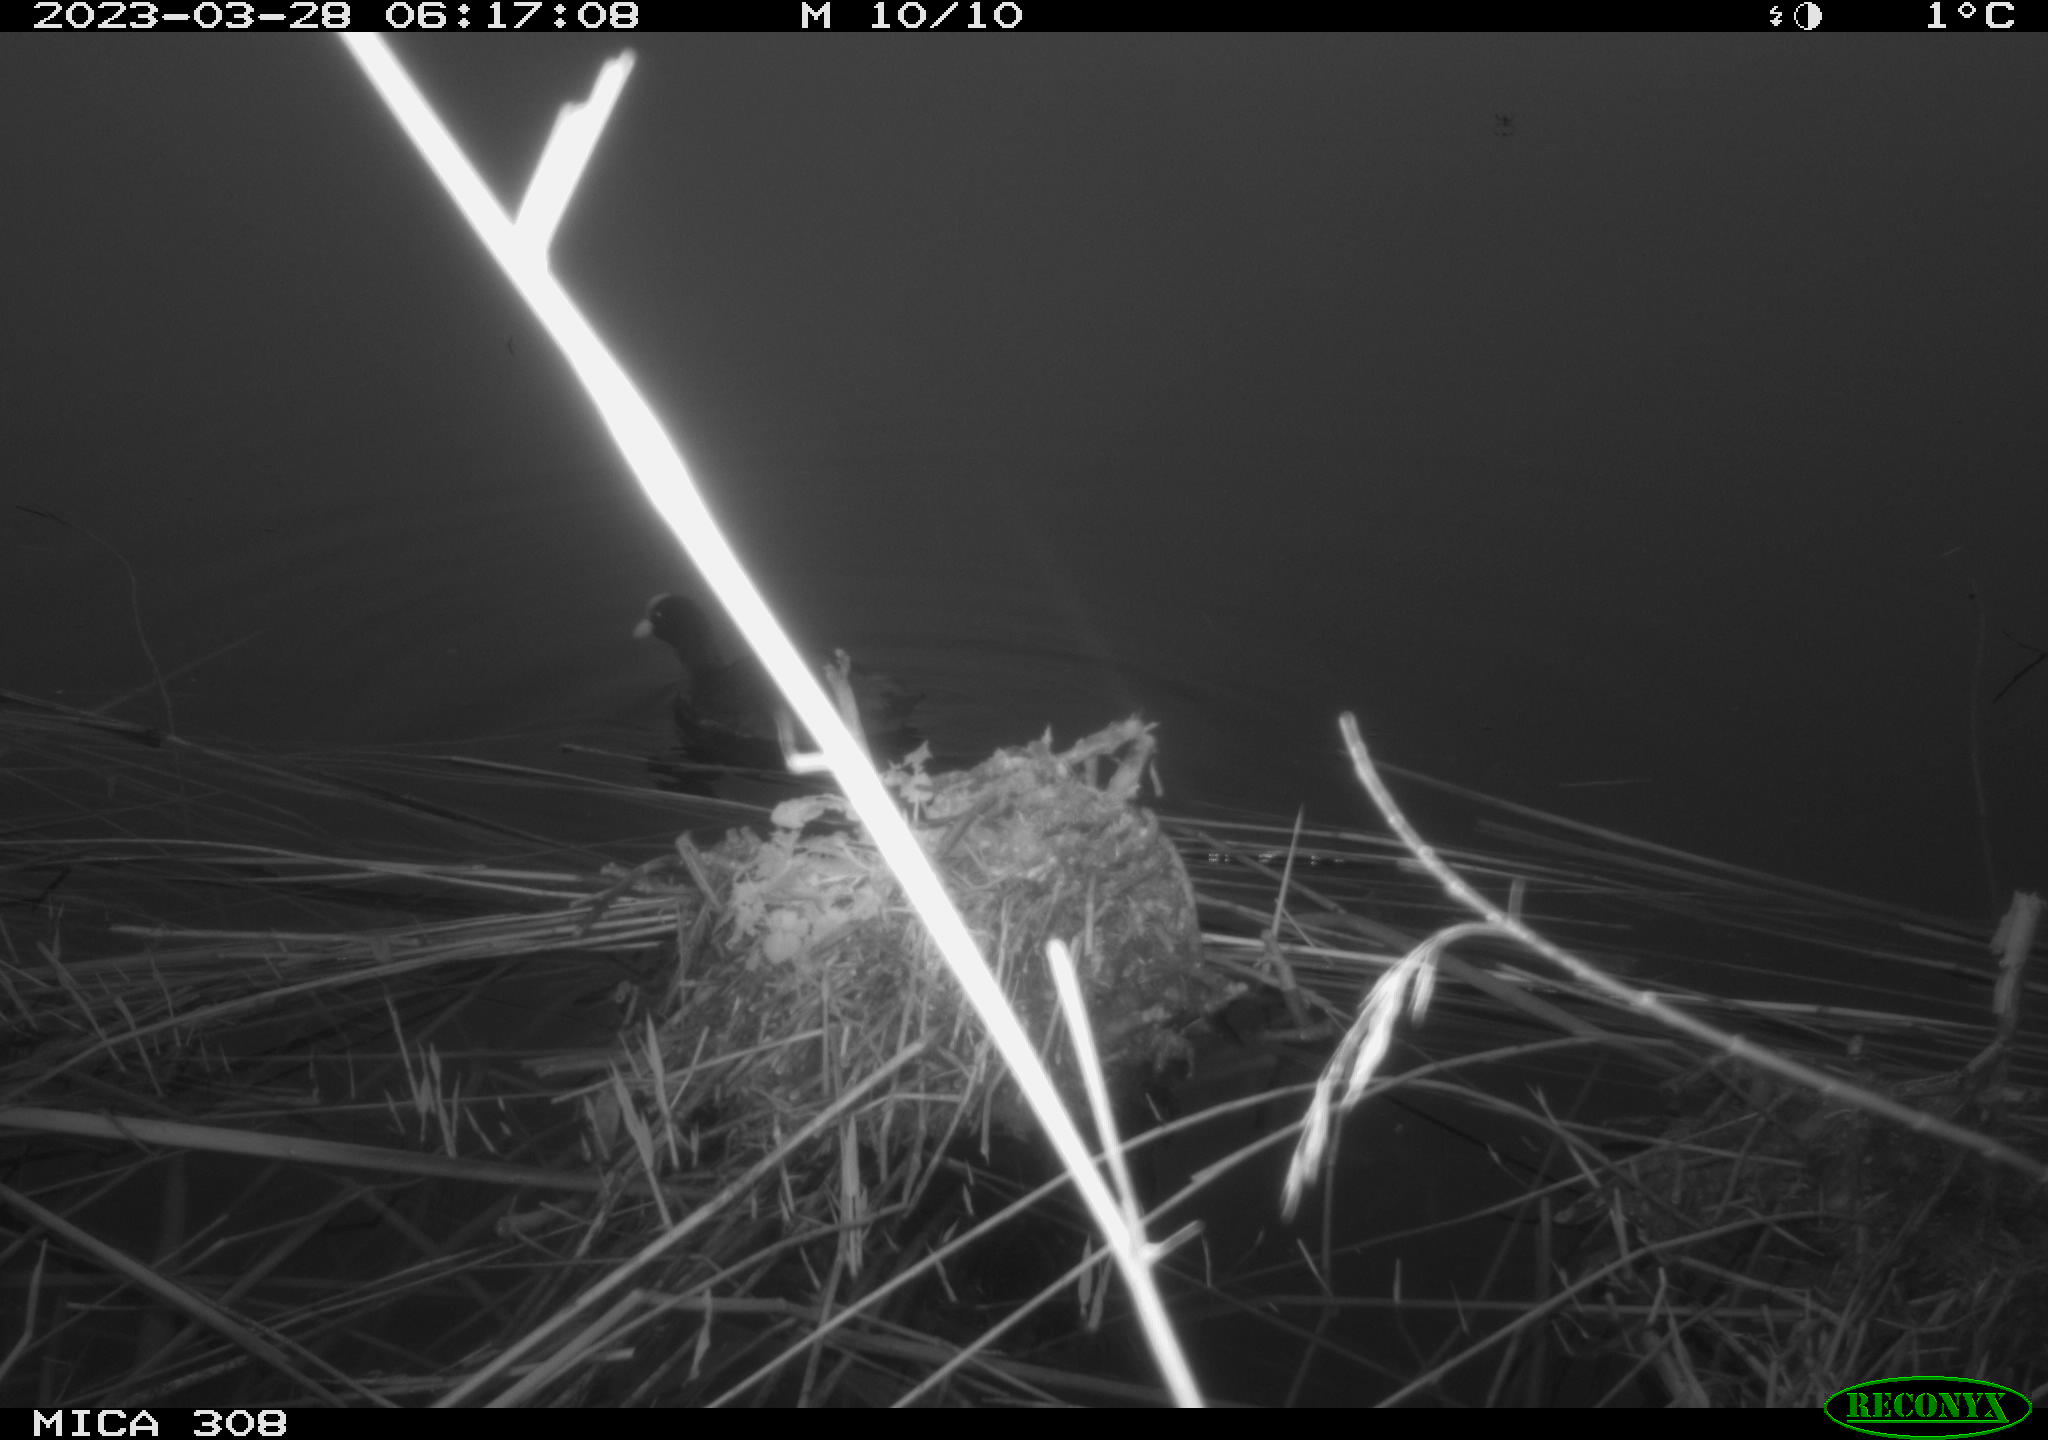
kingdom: Animalia
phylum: Chordata
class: Aves
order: Gruiformes
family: Rallidae
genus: Fulica
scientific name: Fulica atra
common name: Eurasian coot
